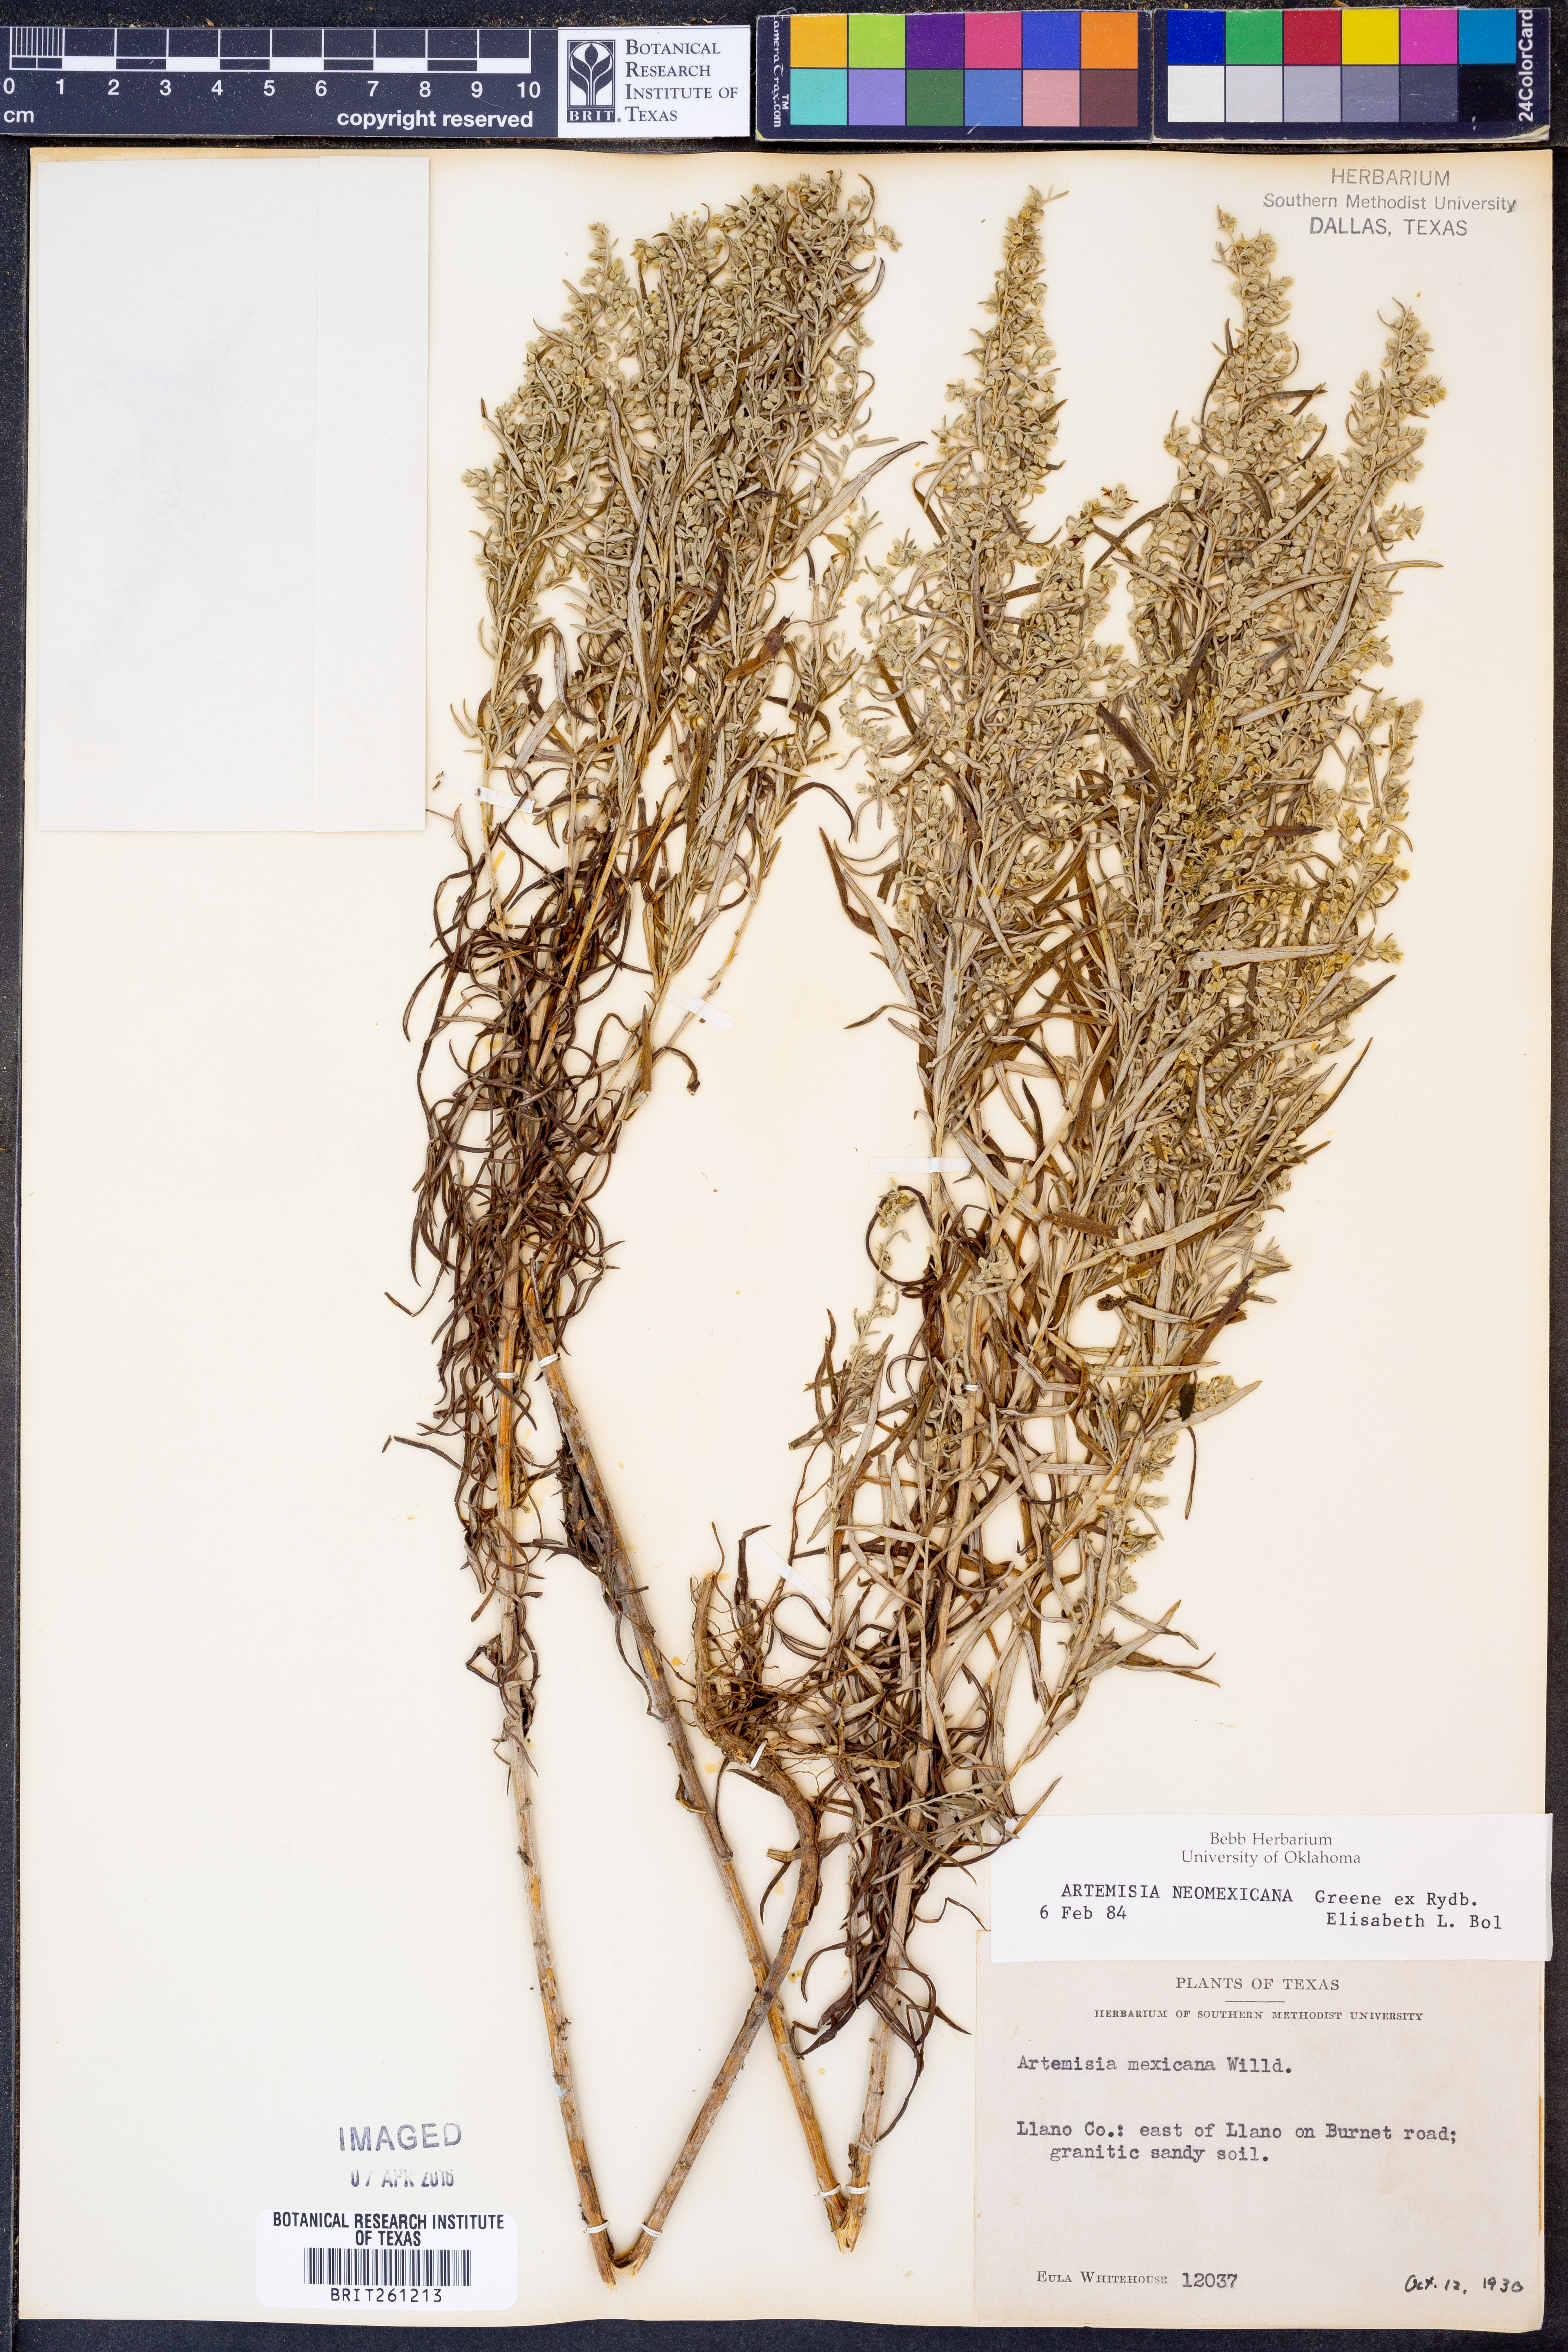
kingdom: Plantae
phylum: Tracheophyta
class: Magnoliopsida
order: Asterales
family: Asteraceae
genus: Artemisia
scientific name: Artemisia ludoviciana
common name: Western mugwort
